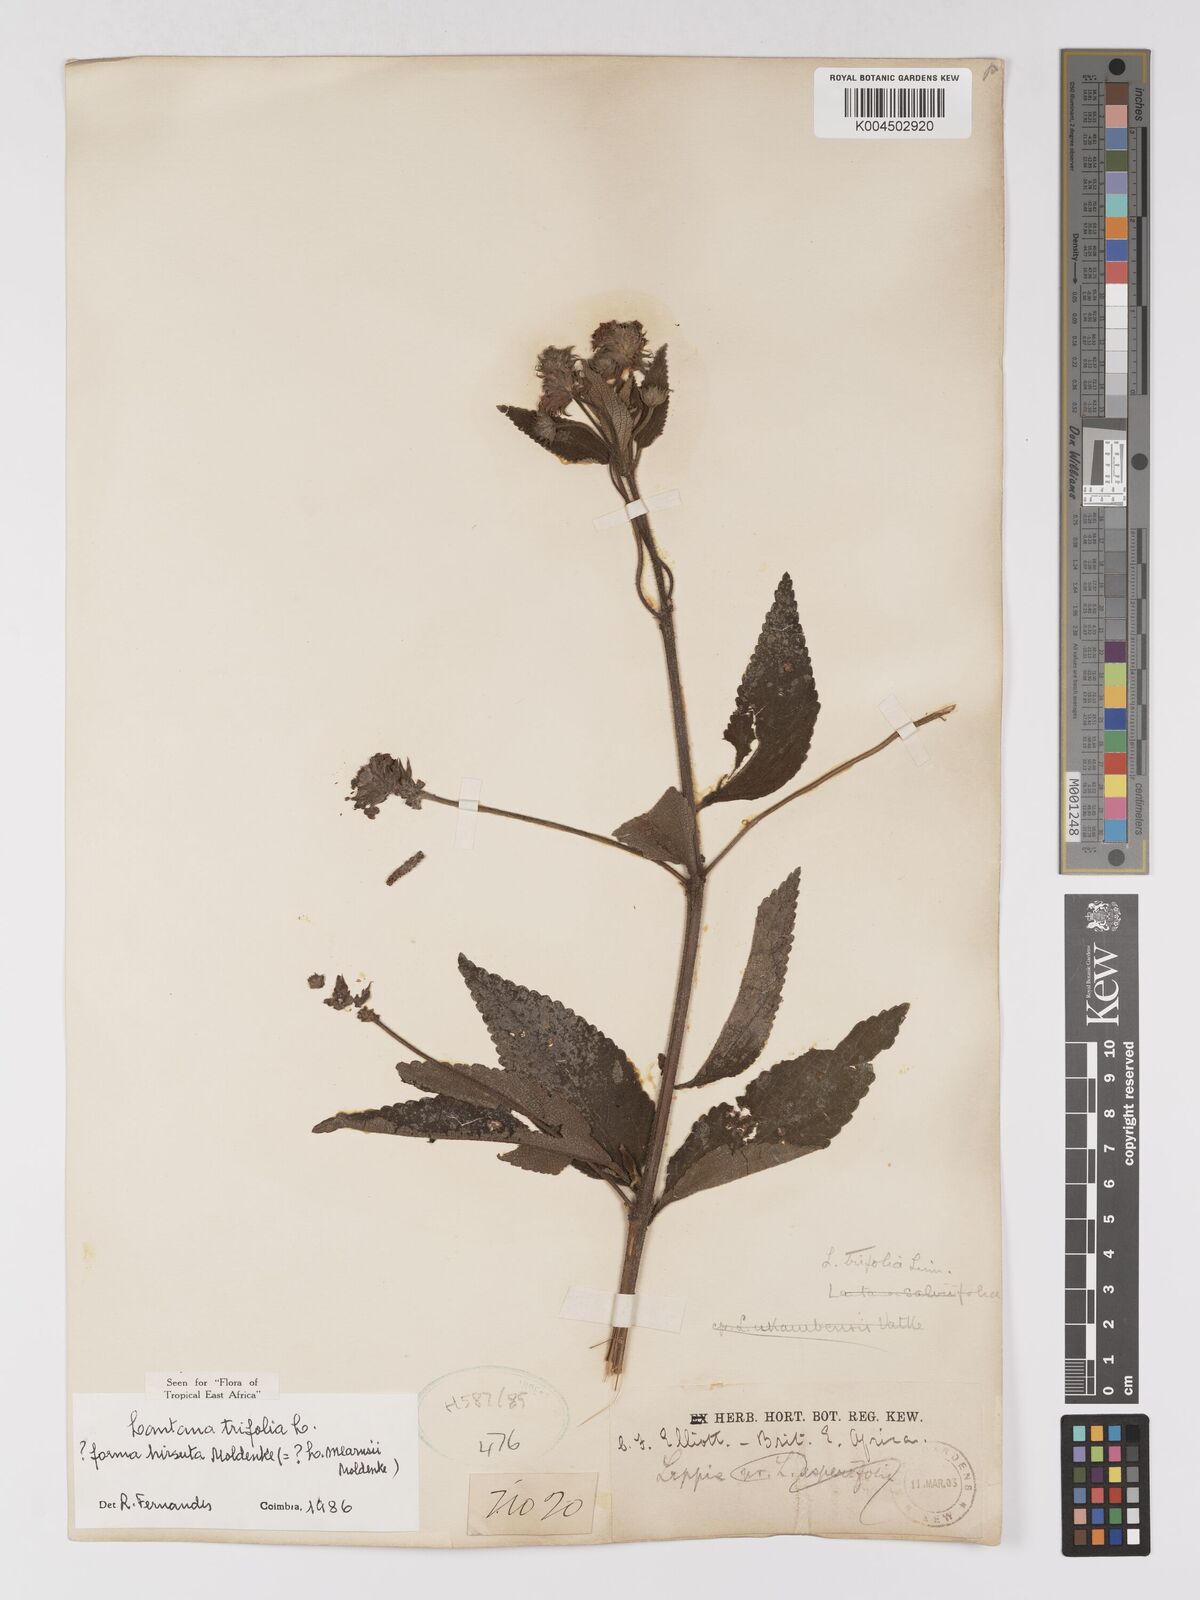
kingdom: Plantae
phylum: Tracheophyta
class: Magnoliopsida
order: Lamiales
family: Verbenaceae
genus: Lantana
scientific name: Lantana trifolia
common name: Sweet-sage
